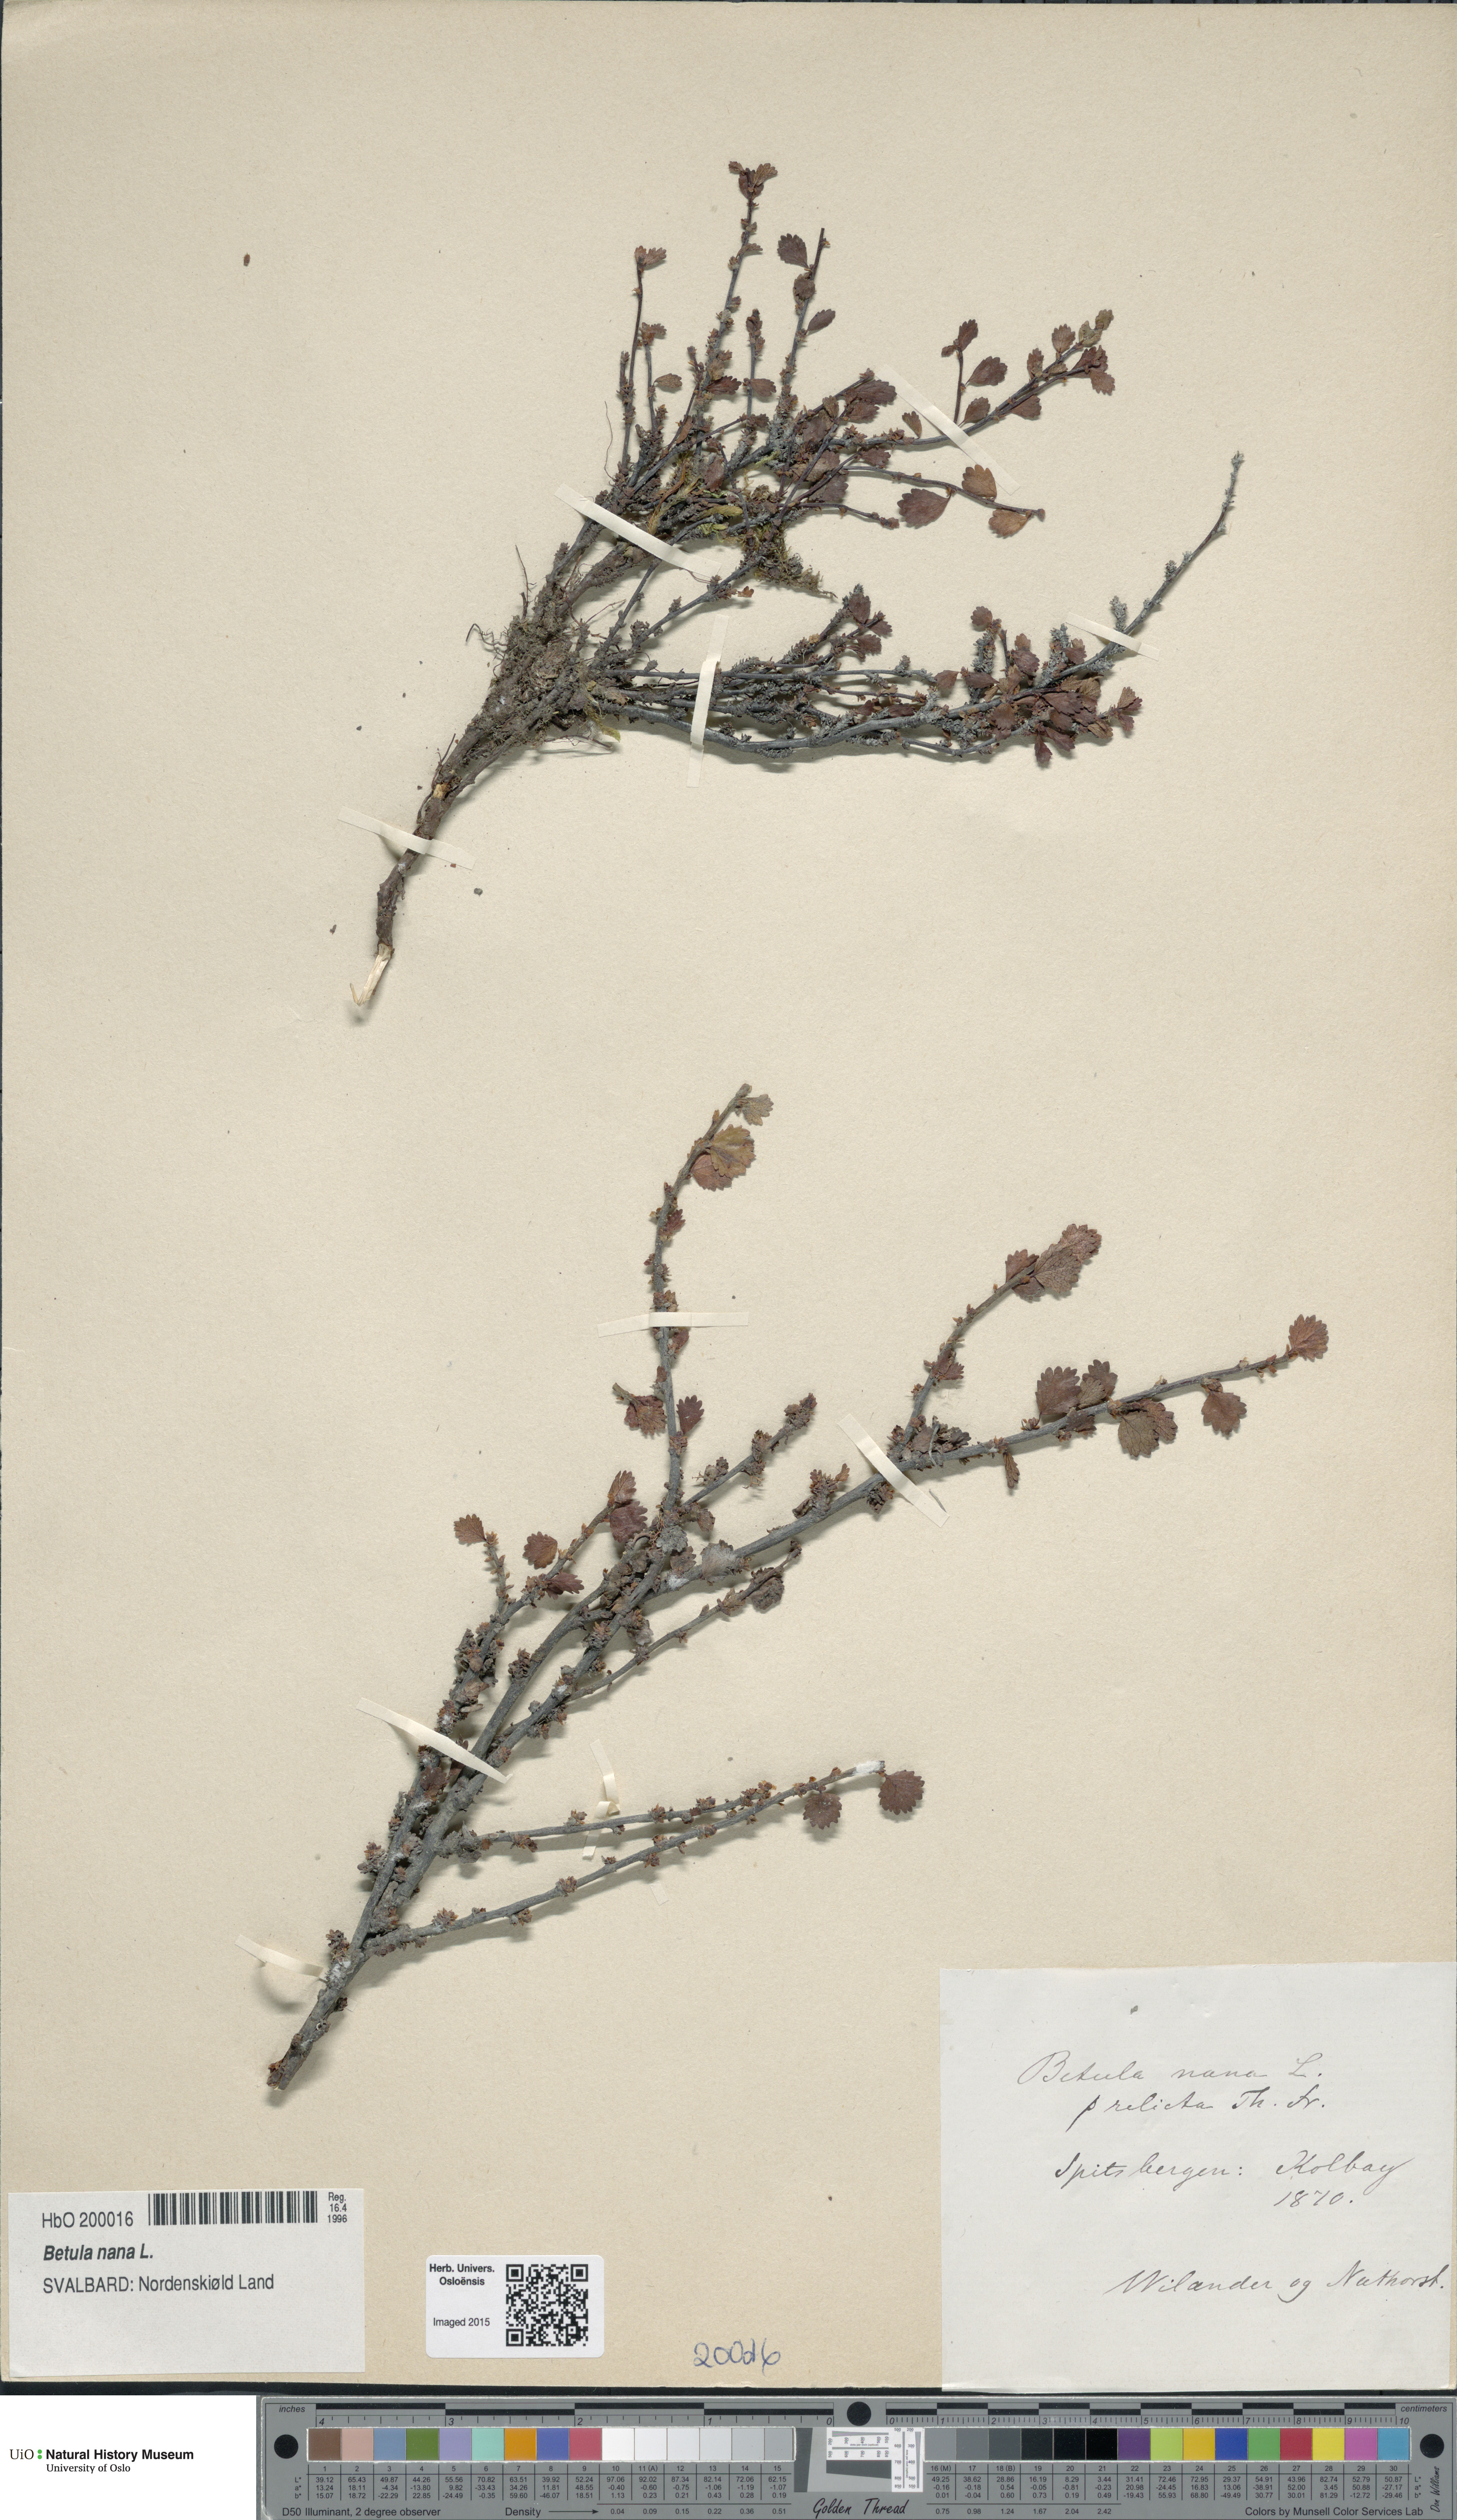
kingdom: Plantae
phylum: Tracheophyta
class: Magnoliopsida
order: Fagales
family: Betulaceae
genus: Betula
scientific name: Betula nana
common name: Arctic dwarf birch
